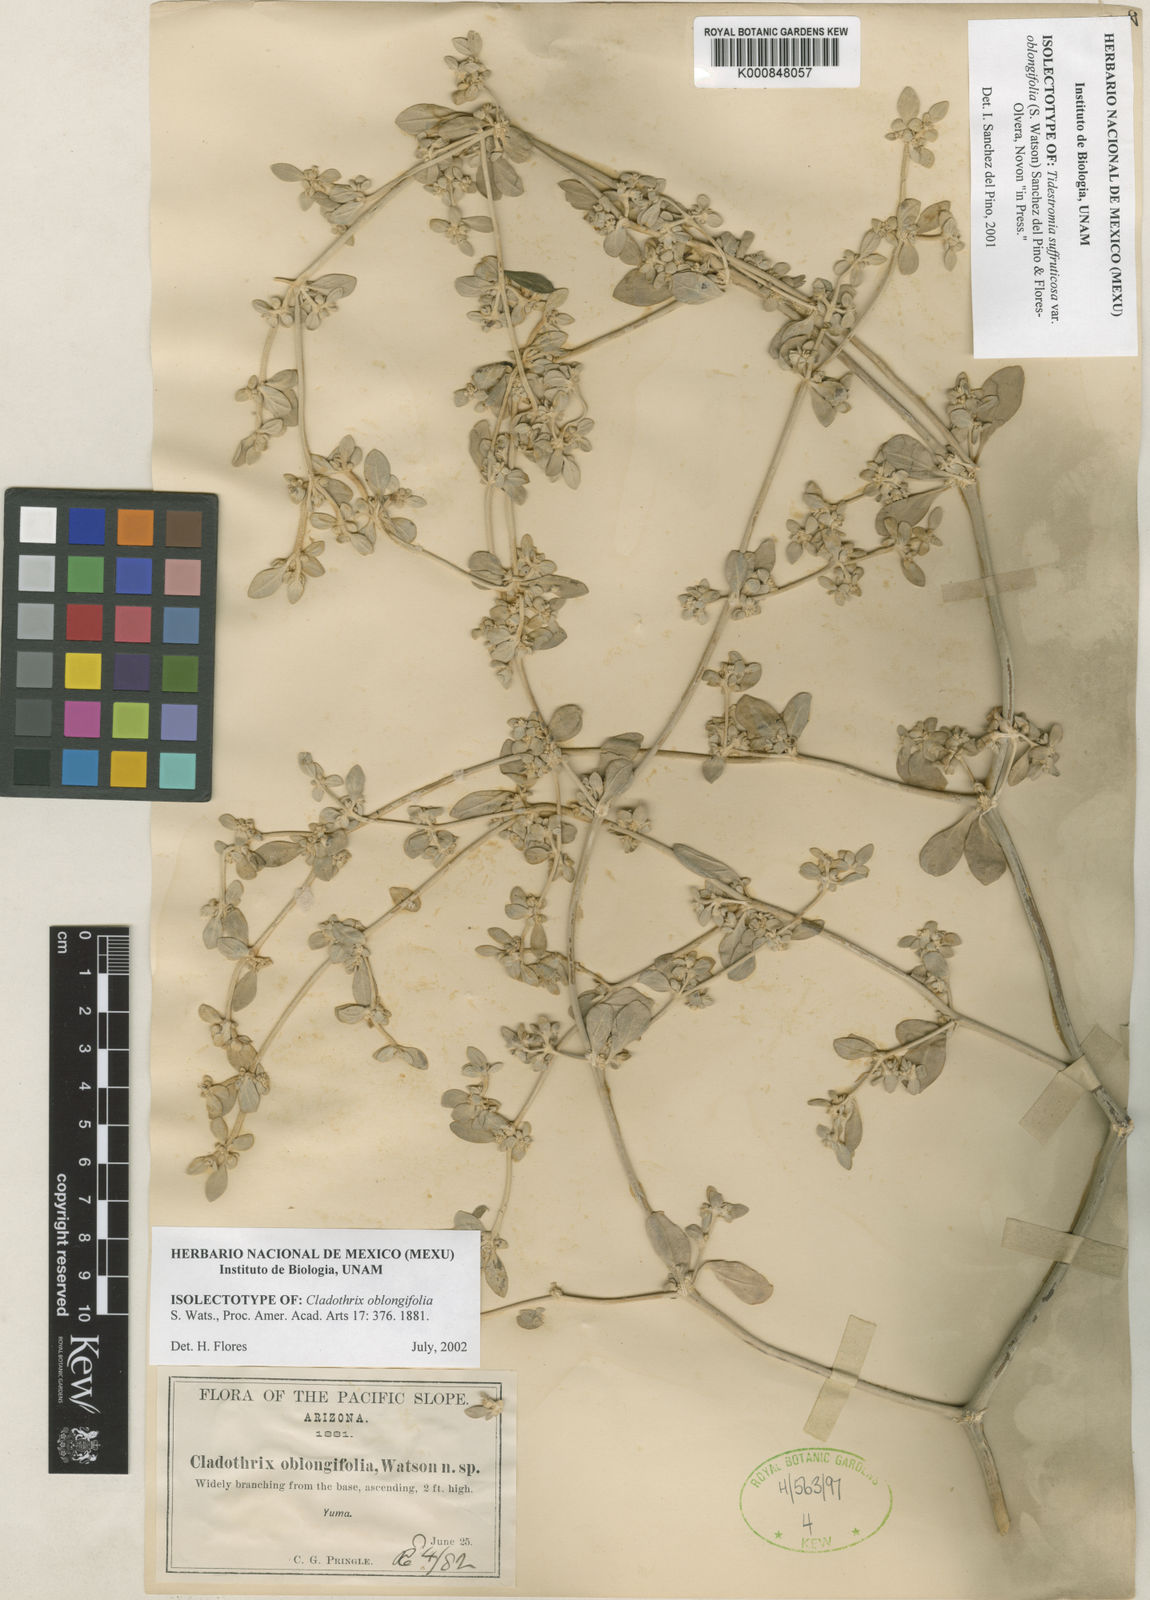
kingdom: Plantae
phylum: Tracheophyta
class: Magnoliopsida
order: Caryophyllales
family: Amaranthaceae
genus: Tidestromia
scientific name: Tidestromia suffruticosa
